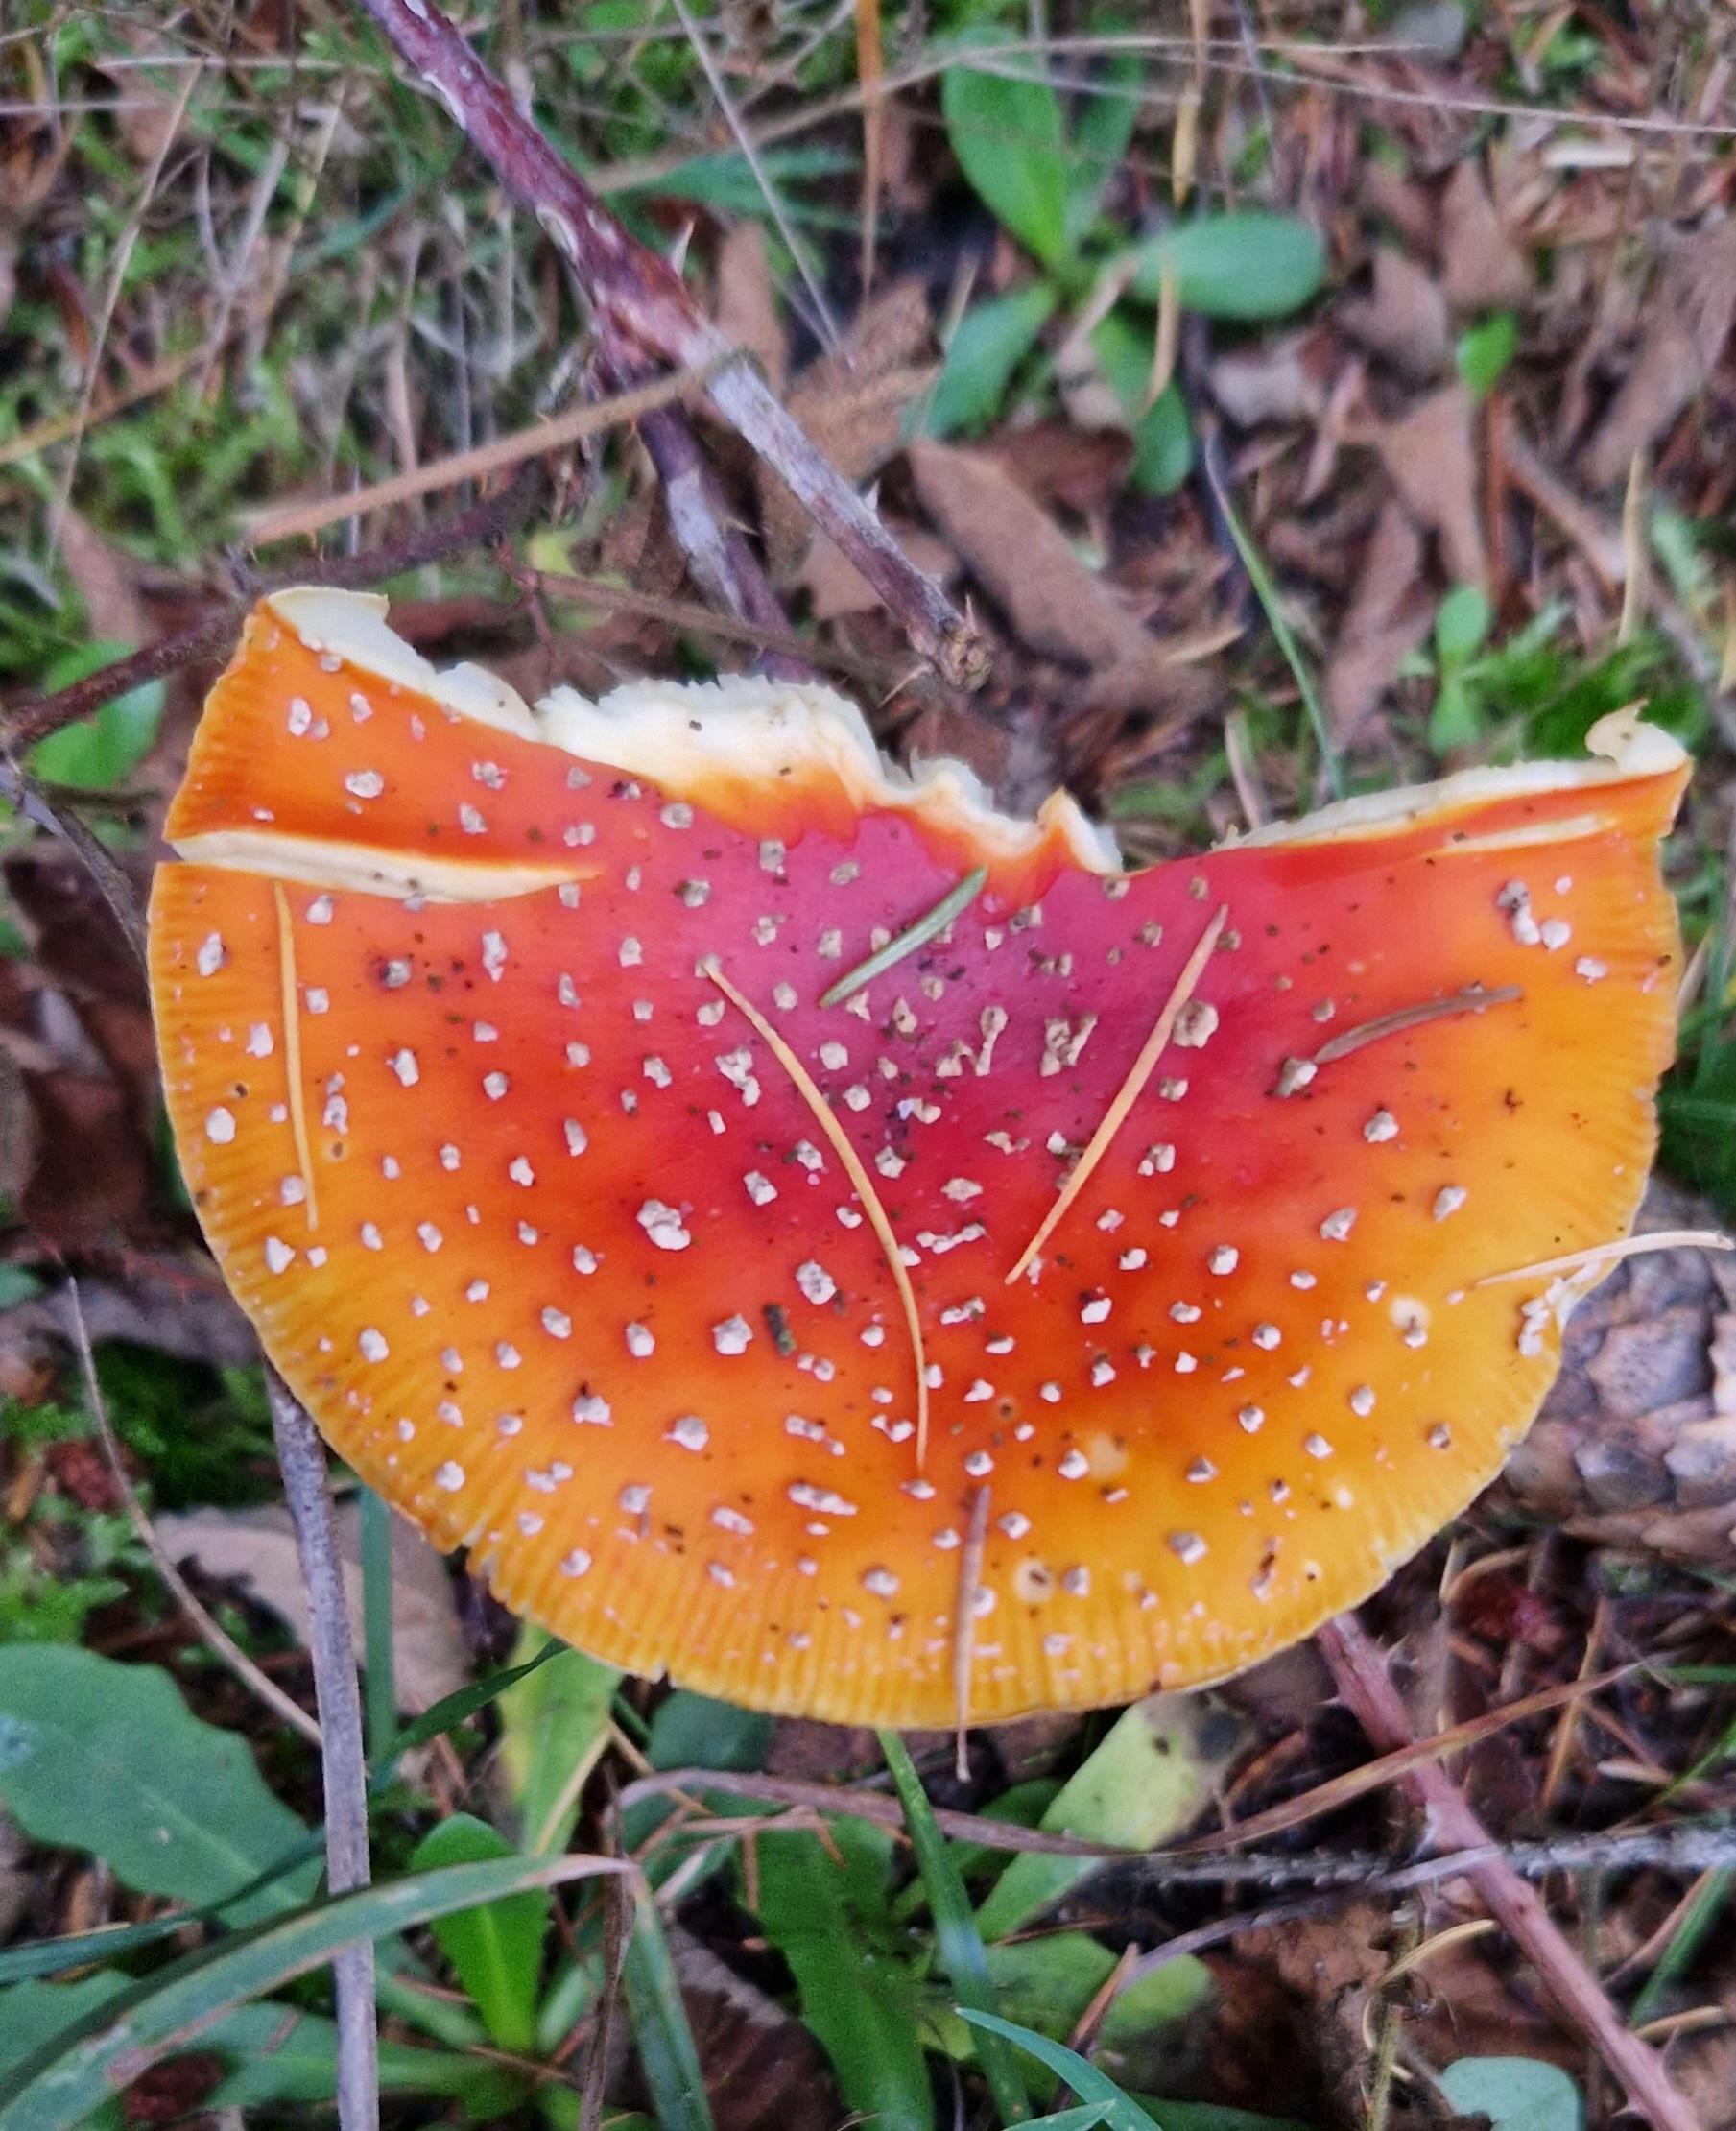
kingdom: Fungi
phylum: Basidiomycota
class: Agaricomycetes
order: Agaricales
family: Amanitaceae
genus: Amanita
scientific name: Amanita muscaria
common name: Rød fluesvamp
